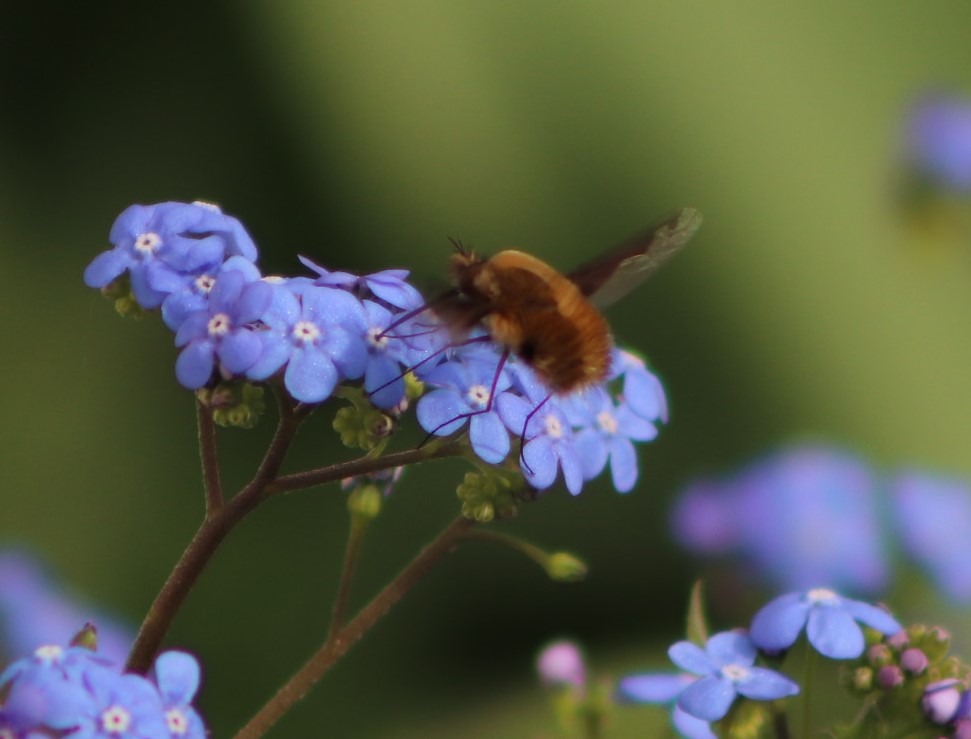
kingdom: Animalia
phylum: Arthropoda
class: Insecta
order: Diptera
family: Bombyliidae
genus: Bombylius
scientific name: Bombylius major
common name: Stor humleflue
